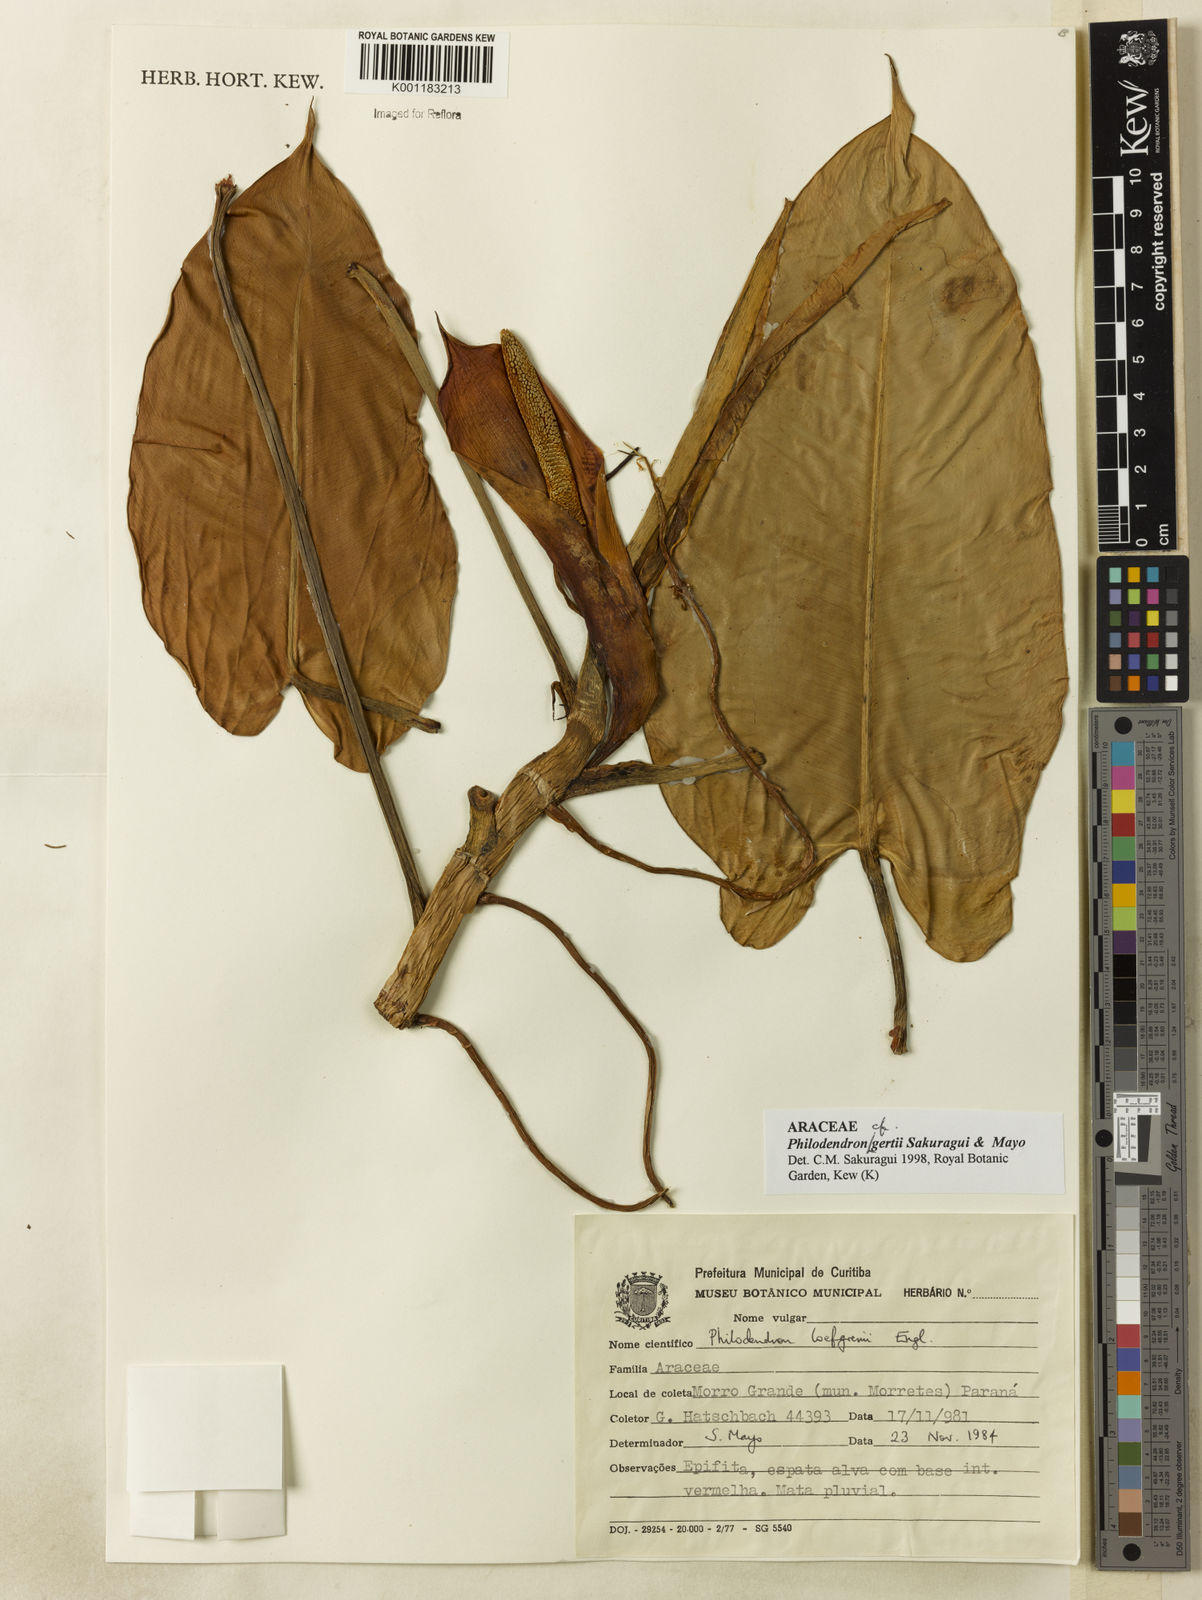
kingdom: Plantae
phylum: Tracheophyta
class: Liliopsida
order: Alismatales
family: Araceae
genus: Philodendron
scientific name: Philodendron
